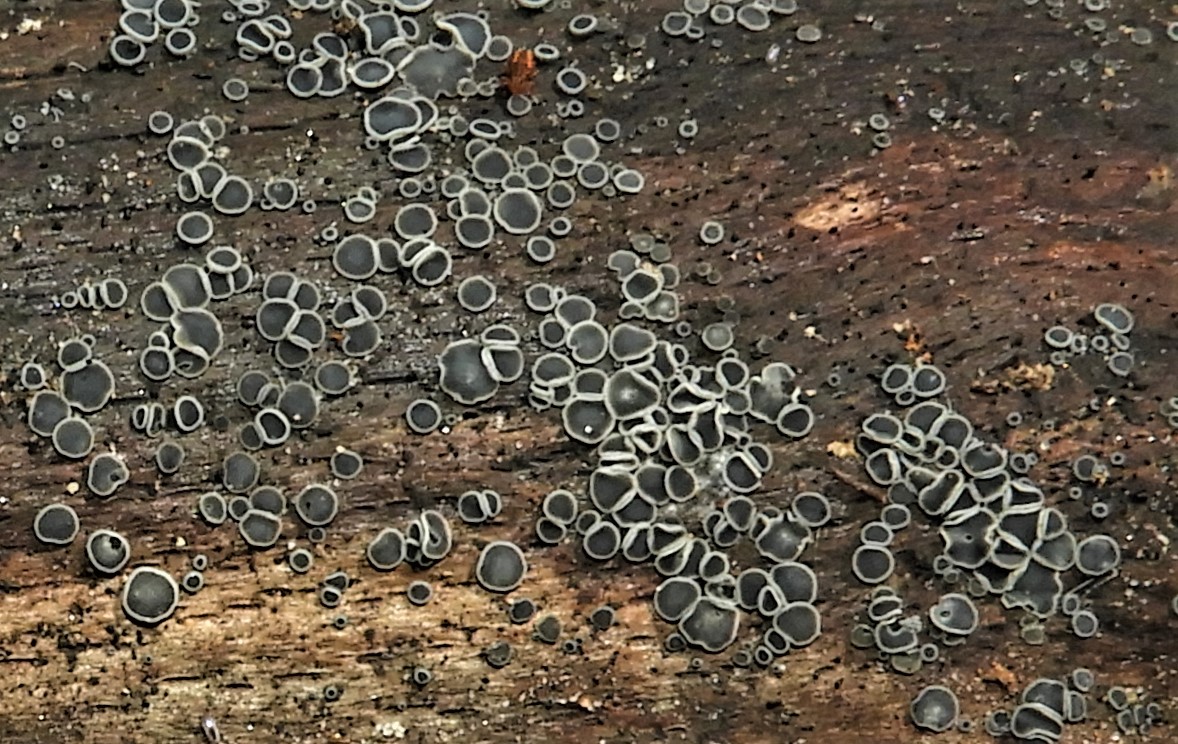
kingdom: Fungi
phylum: Ascomycota
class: Leotiomycetes
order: Helotiales
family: Mollisiaceae
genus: Mollisia
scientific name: Mollisia cinerea
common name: almindelig gråskive
